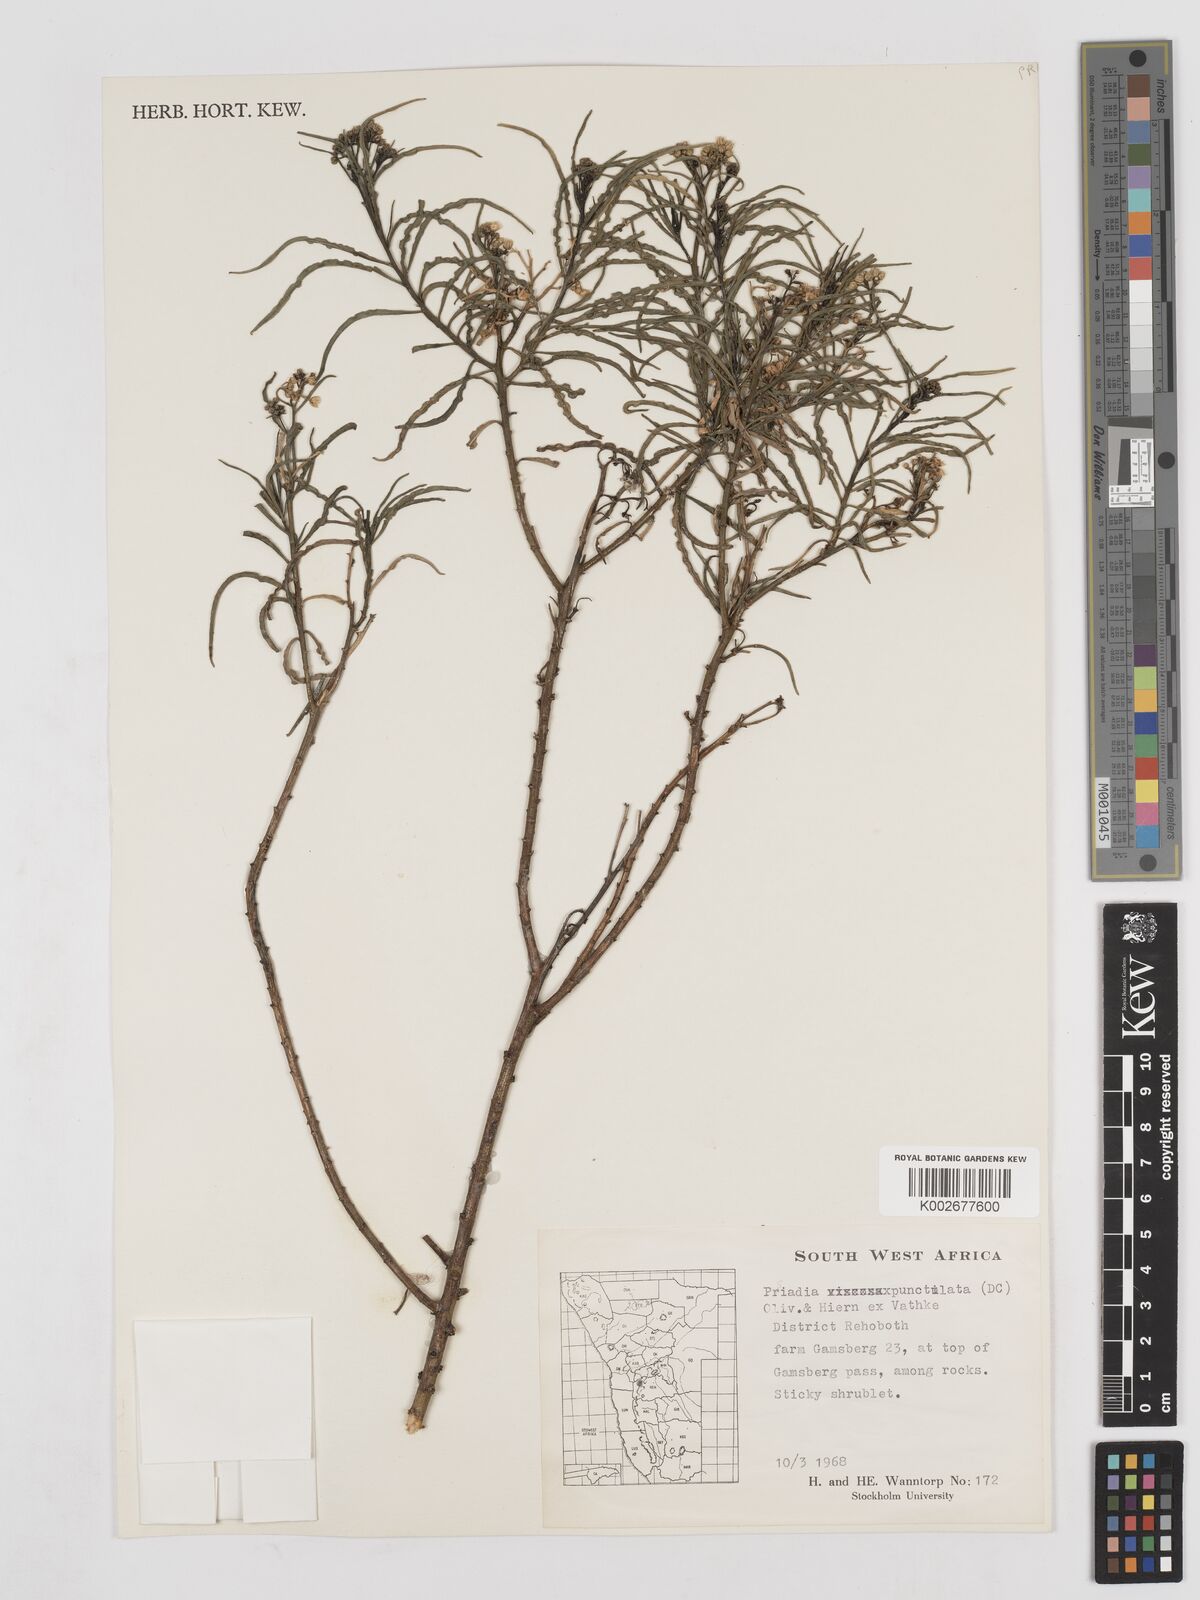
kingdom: Plantae
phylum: Tracheophyta
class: Magnoliopsida
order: Asterales
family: Asteraceae
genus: Psiadia
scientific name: Psiadia punctulata
